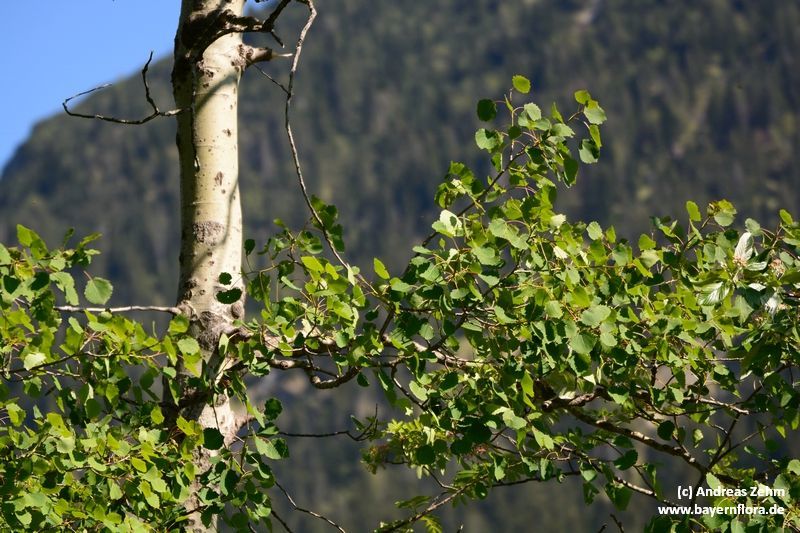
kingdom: Plantae
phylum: Tracheophyta
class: Magnoliopsida
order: Malpighiales
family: Salicaceae
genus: Populus
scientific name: Populus tremula
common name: European aspen
